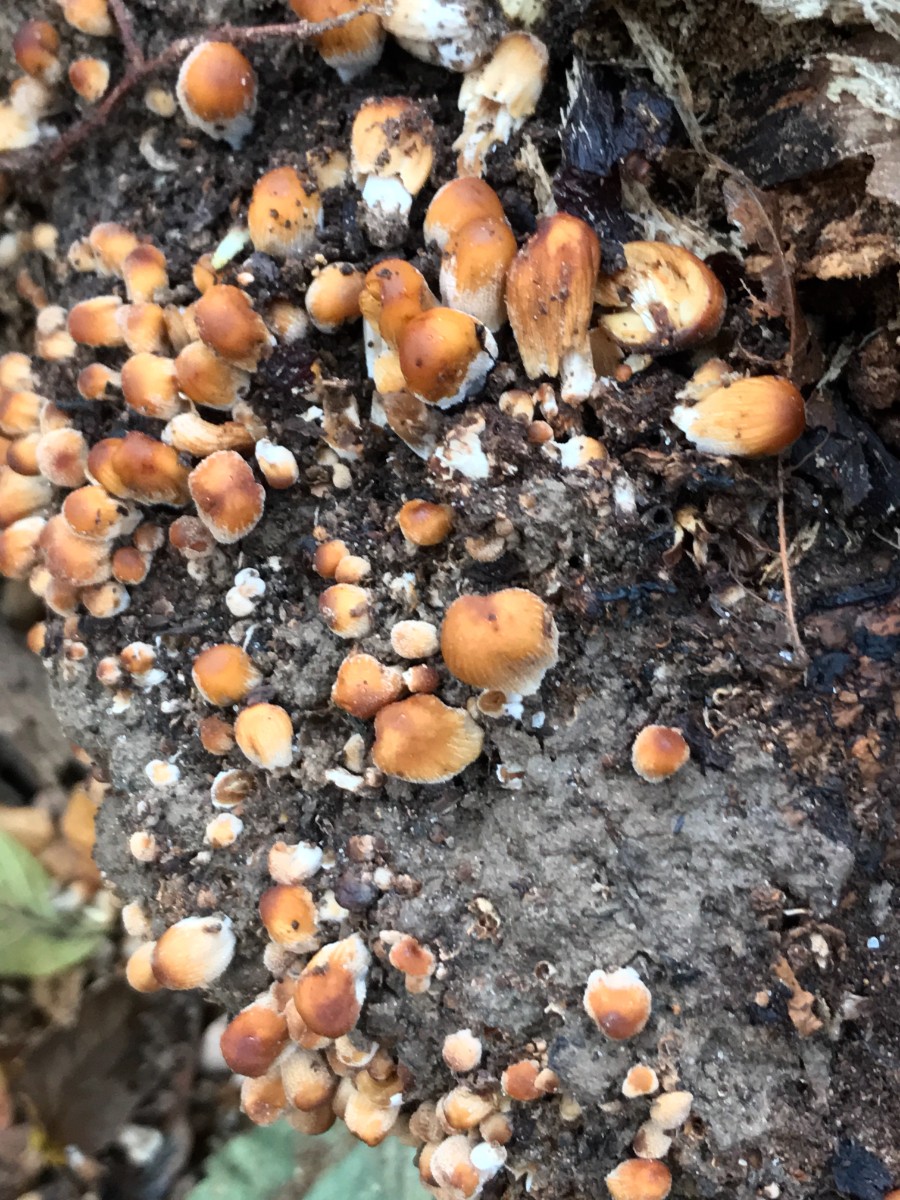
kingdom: Fungi
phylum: Basidiomycota
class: Agaricomycetes
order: Agaricales
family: Psathyrellaceae
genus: Coprinellus
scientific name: Coprinellus micaceus
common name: glimmer-blækhat
